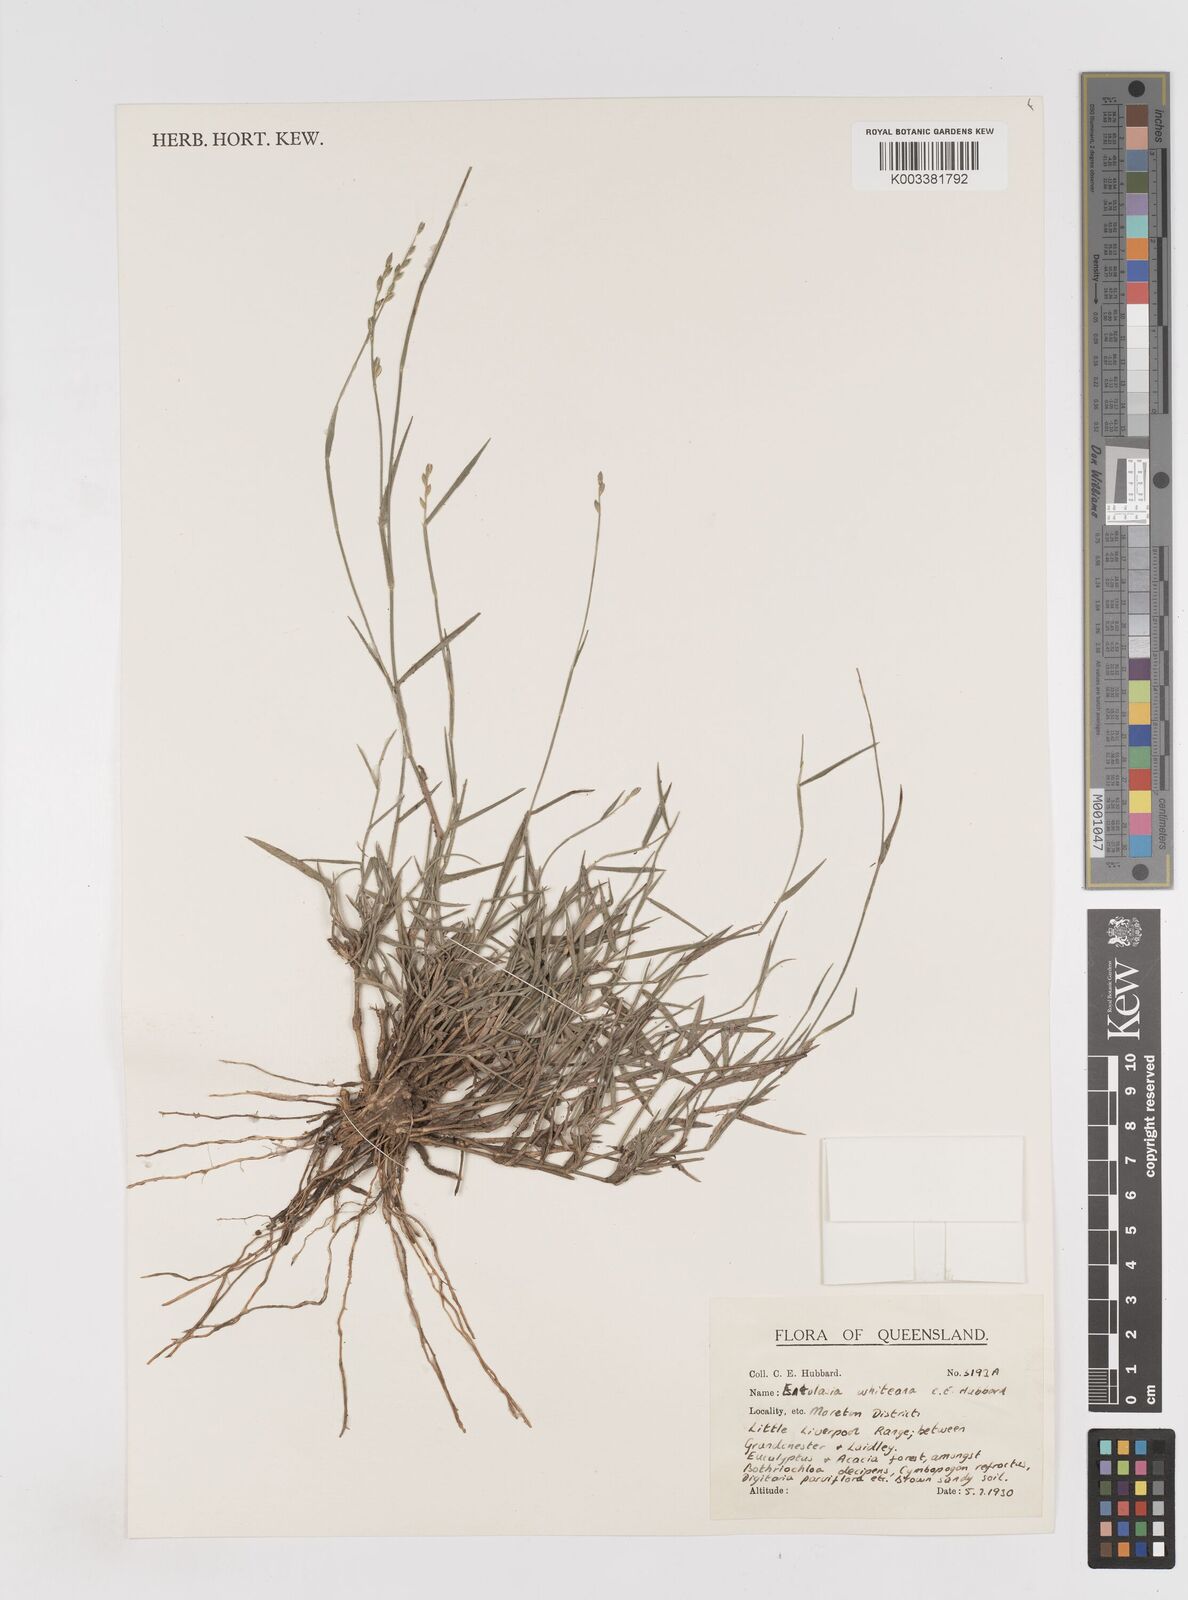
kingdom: Plantae
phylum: Tracheophyta
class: Liliopsida
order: Poales
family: Poaceae
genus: Entolasia
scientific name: Entolasia whiteana
